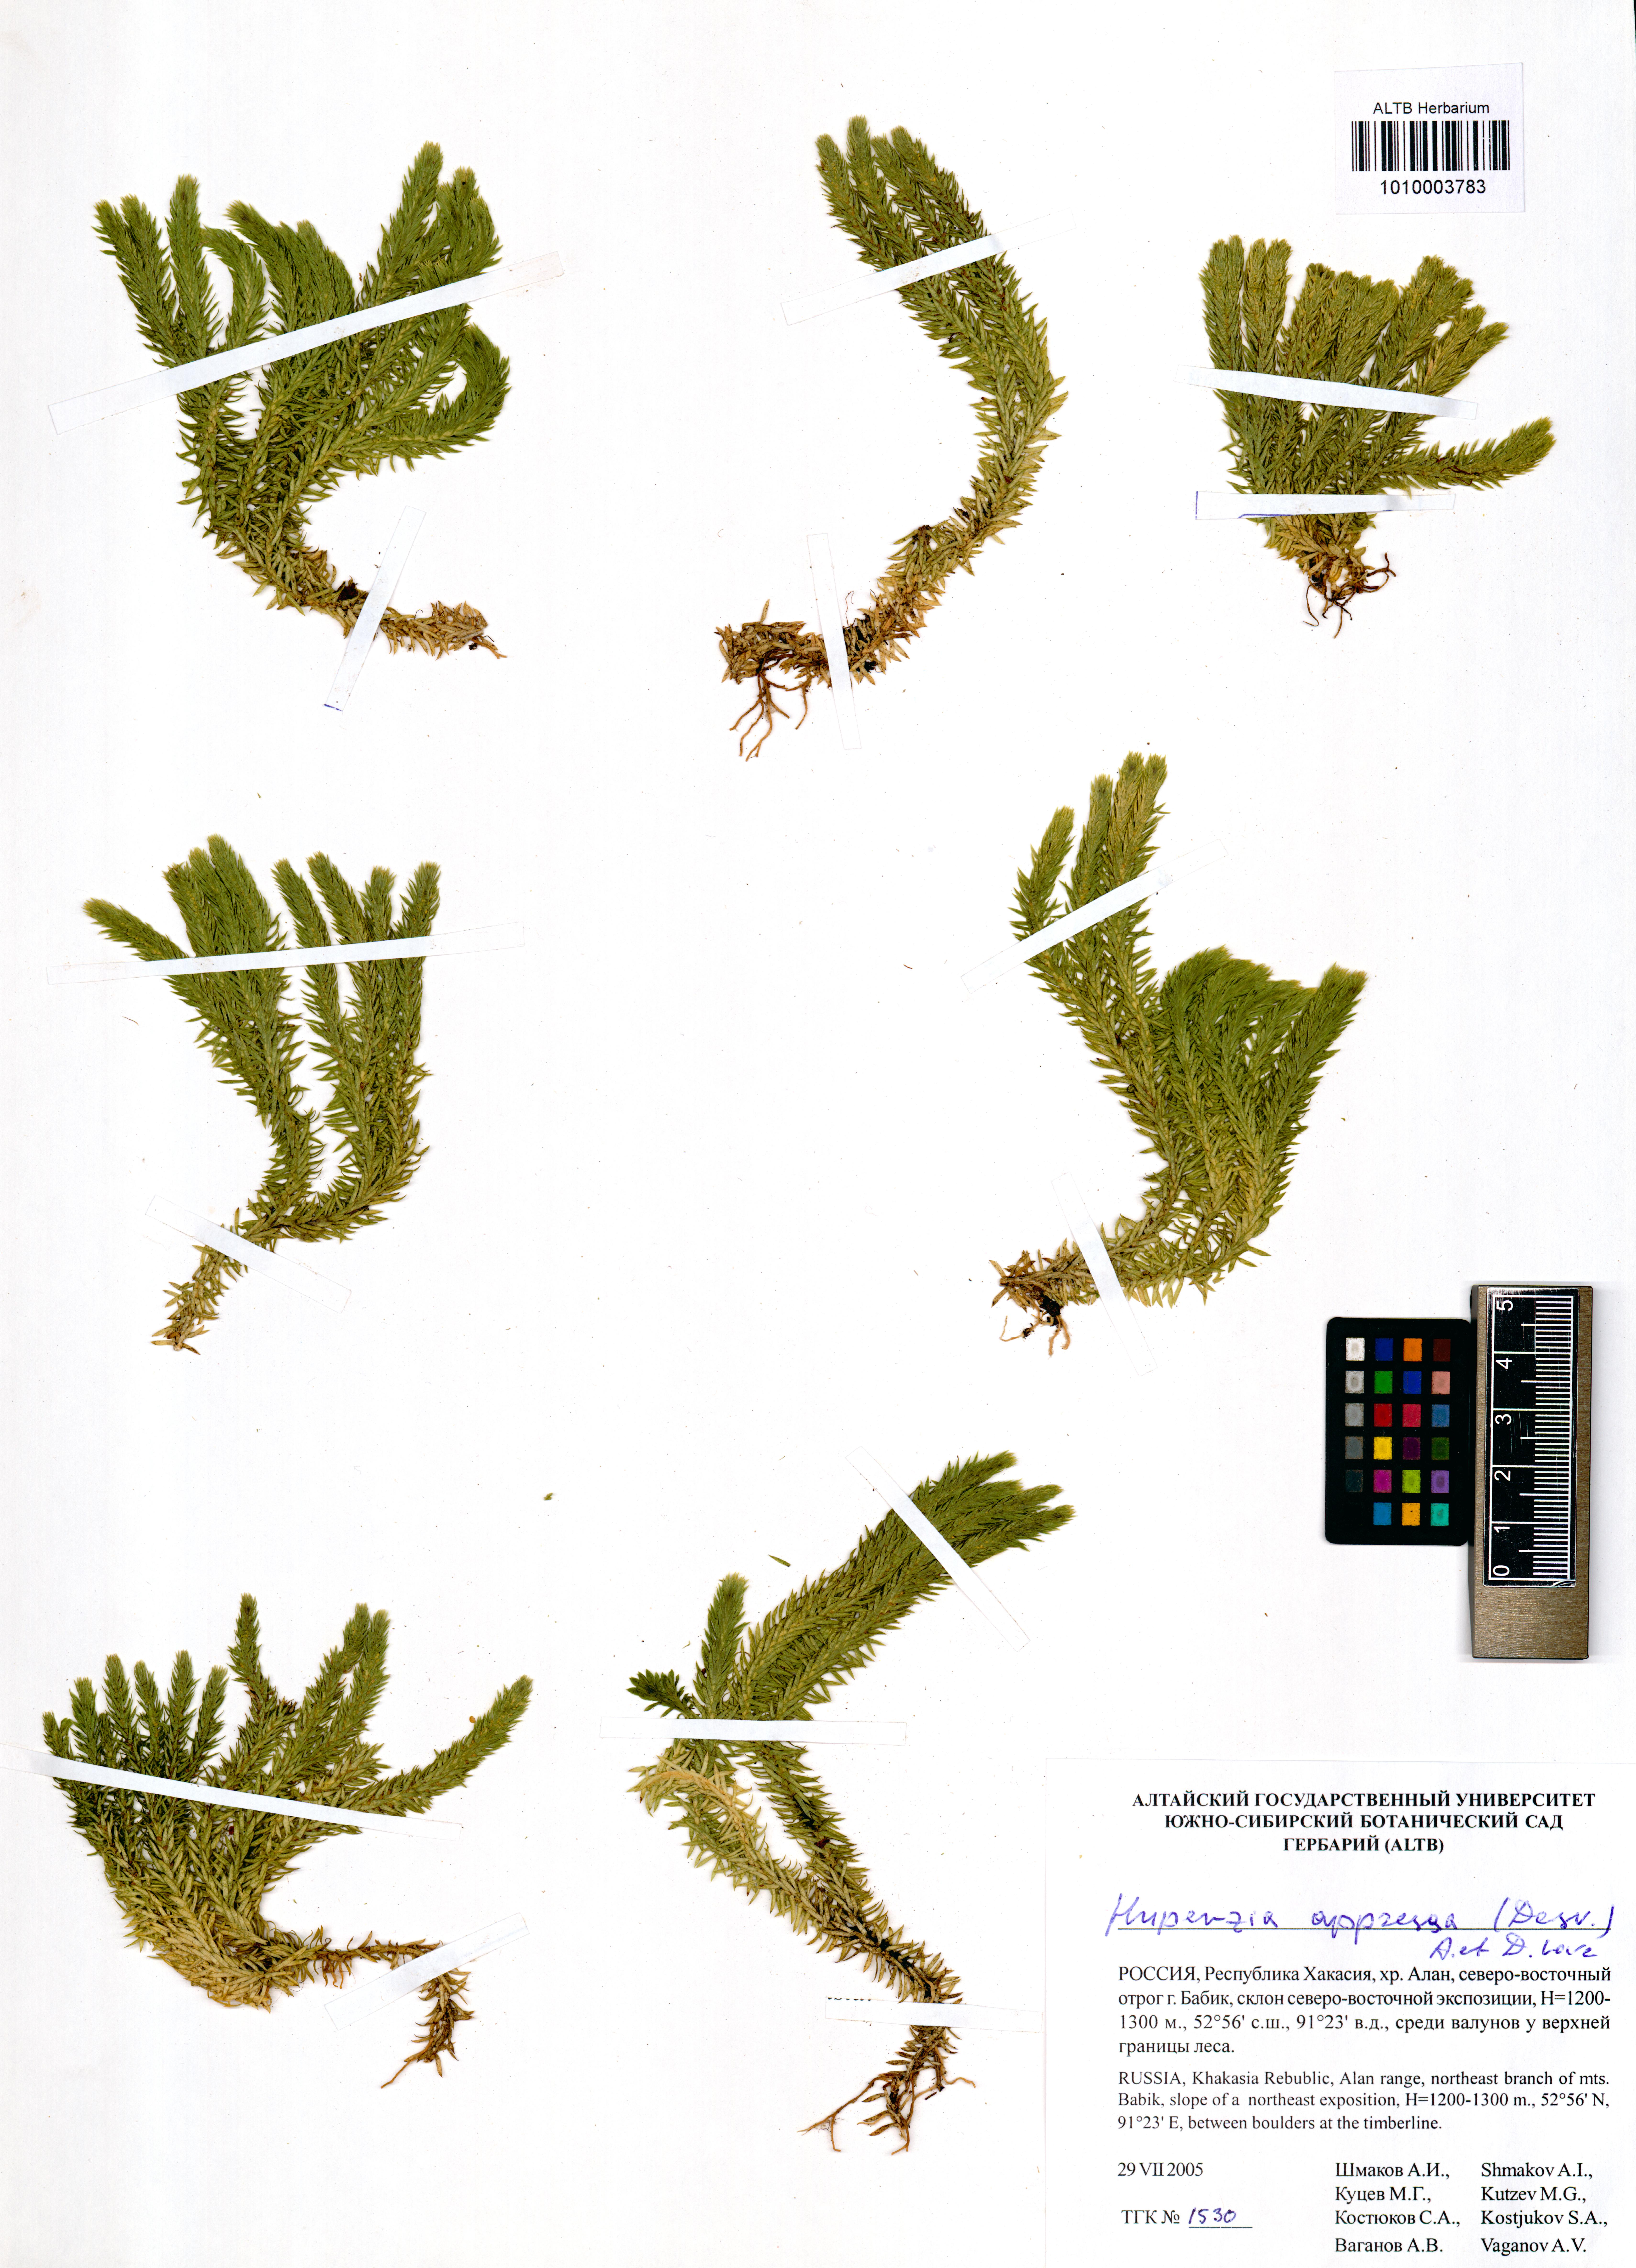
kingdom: Plantae
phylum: Tracheophyta
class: Lycopodiopsida
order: Lycopodiales
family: Lycopodiaceae
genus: Huperzia
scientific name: Huperzia selago
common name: Northern firmoss
